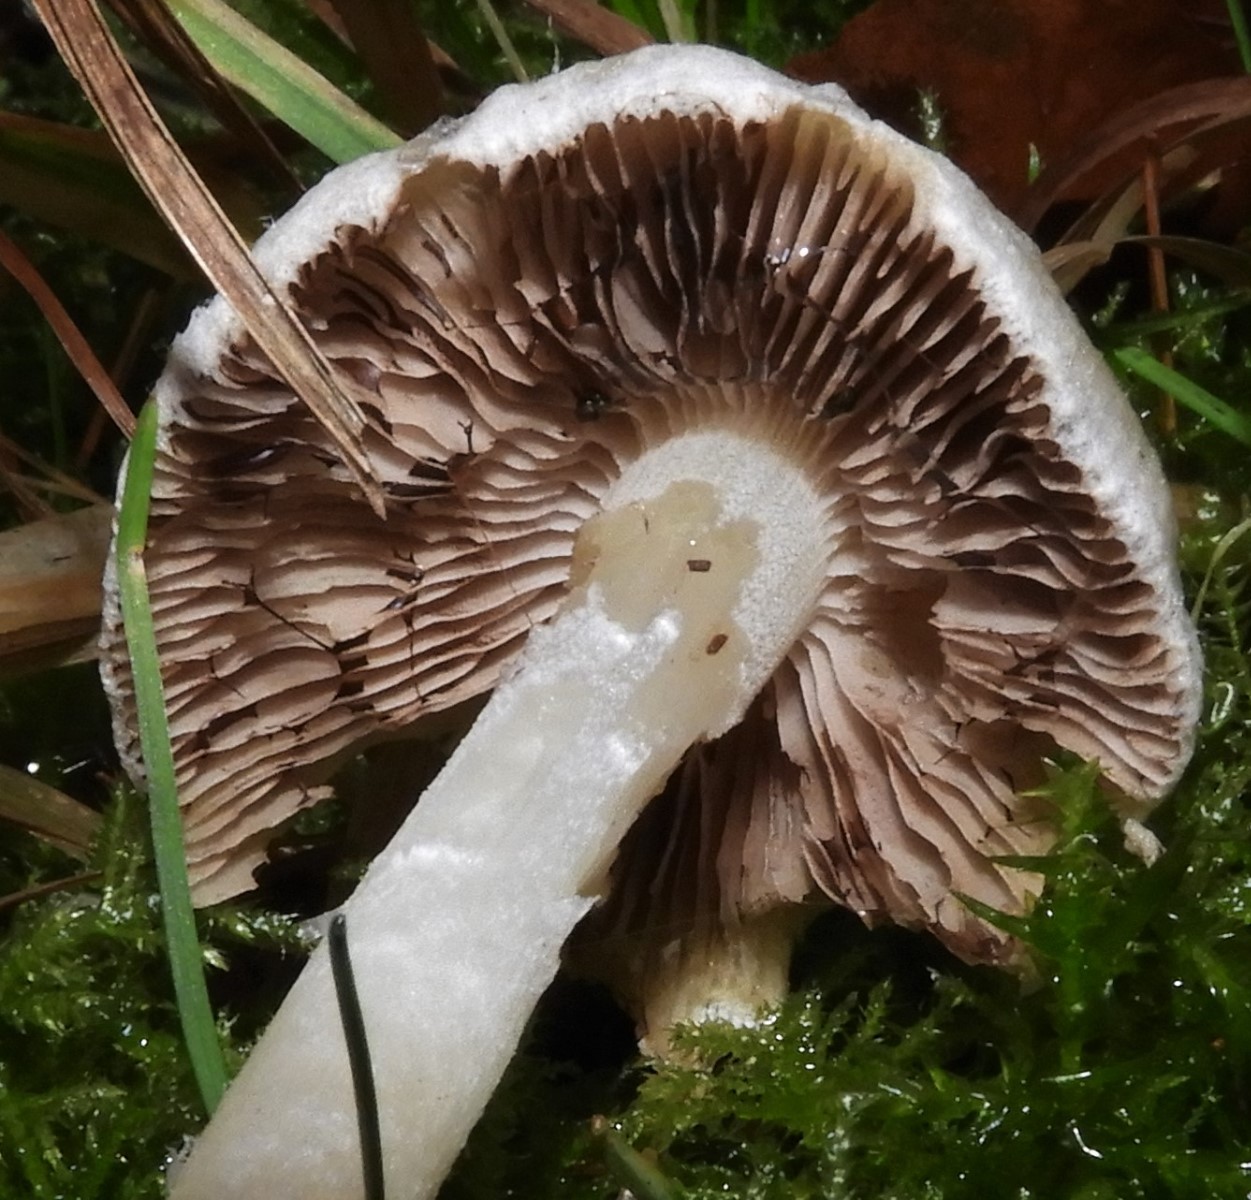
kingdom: Fungi
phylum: Basidiomycota
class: Agaricomycetes
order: Agaricales
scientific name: Agaricales
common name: champignonordenen
